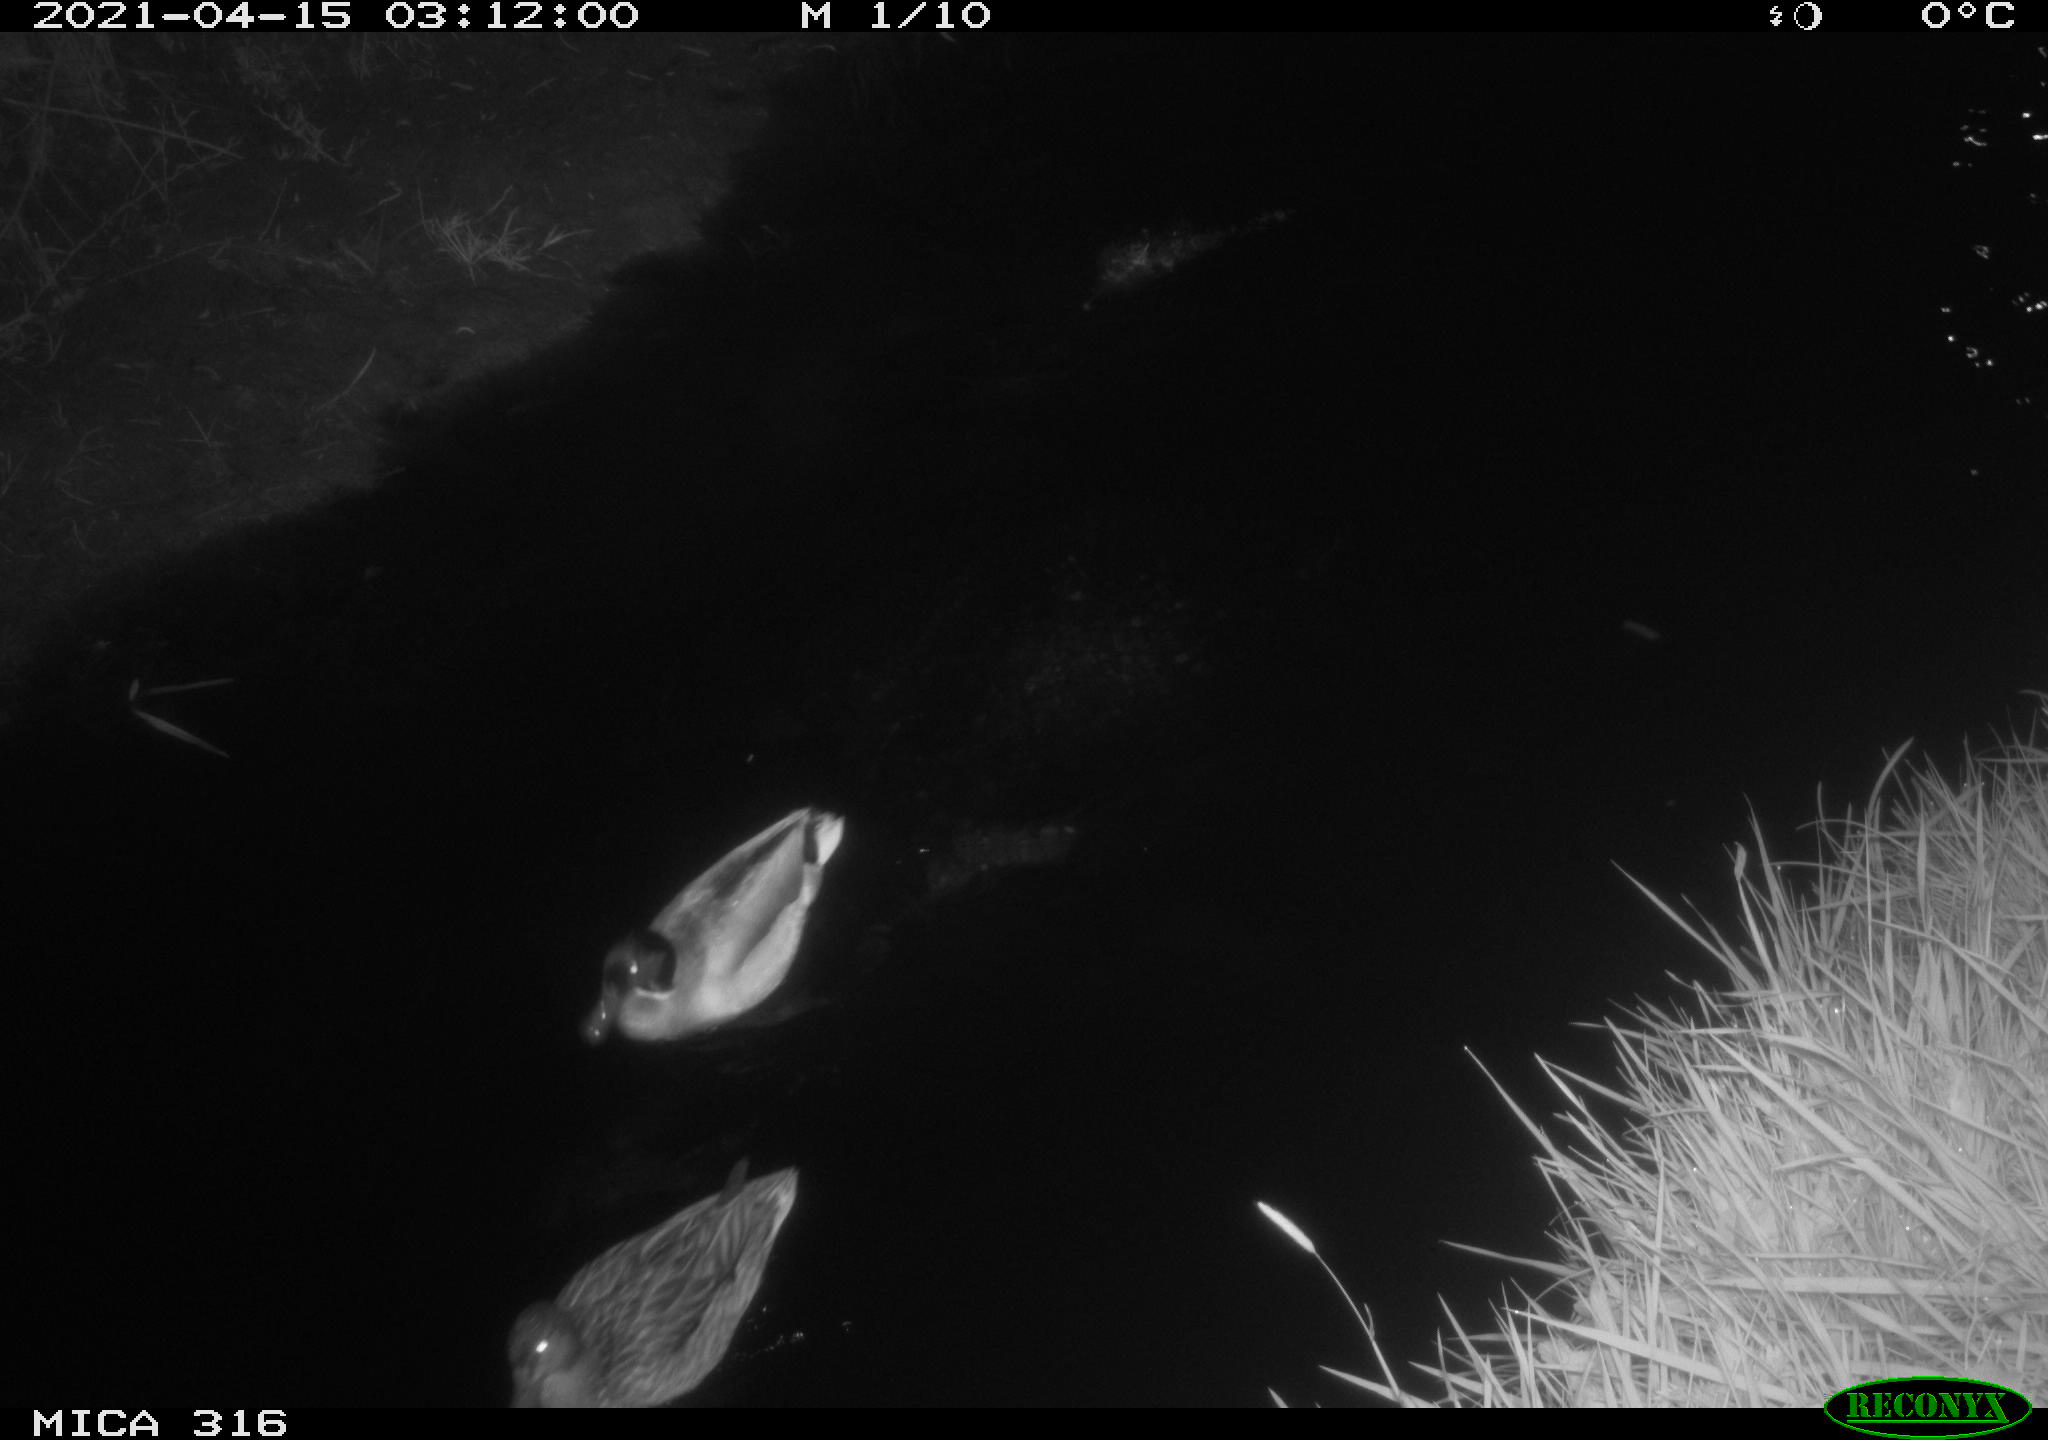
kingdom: Animalia
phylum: Chordata
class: Aves
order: Anseriformes
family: Anatidae
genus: Anas
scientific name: Anas platyrhynchos
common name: Mallard
